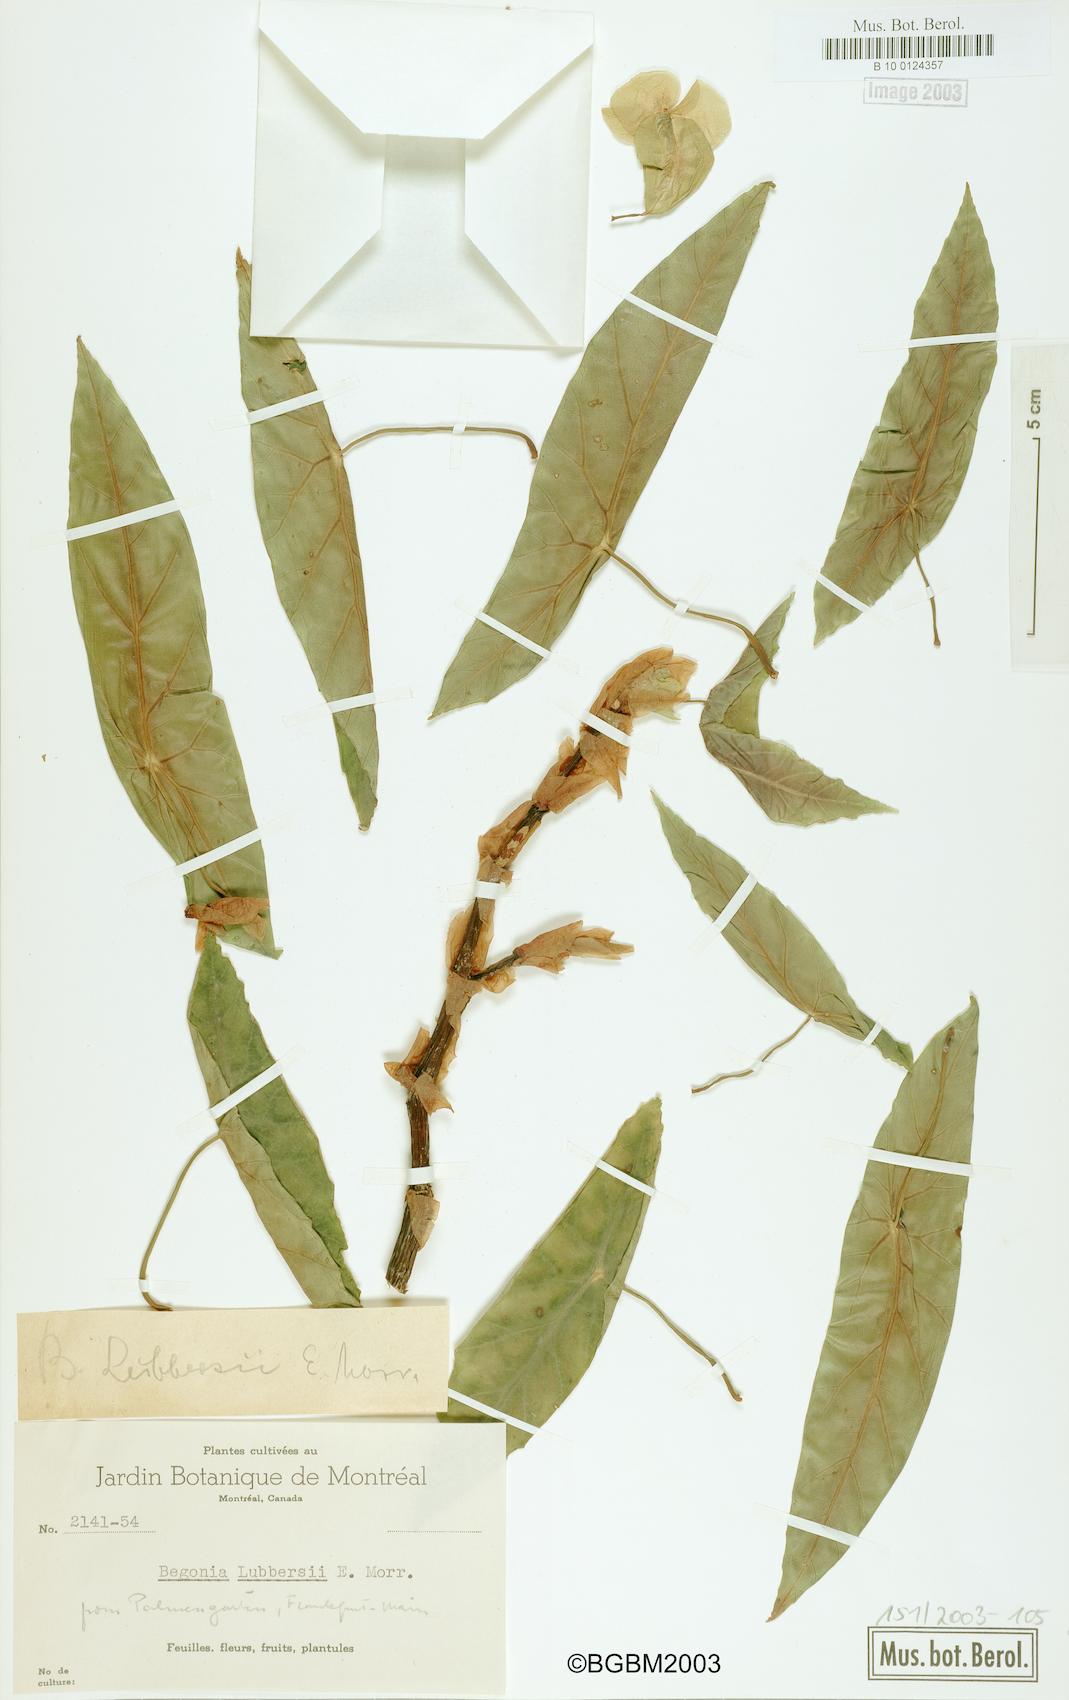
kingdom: Plantae
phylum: Tracheophyta
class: Magnoliopsida
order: Cucurbitales
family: Begoniaceae
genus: Begonia
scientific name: Begonia lubbersii
